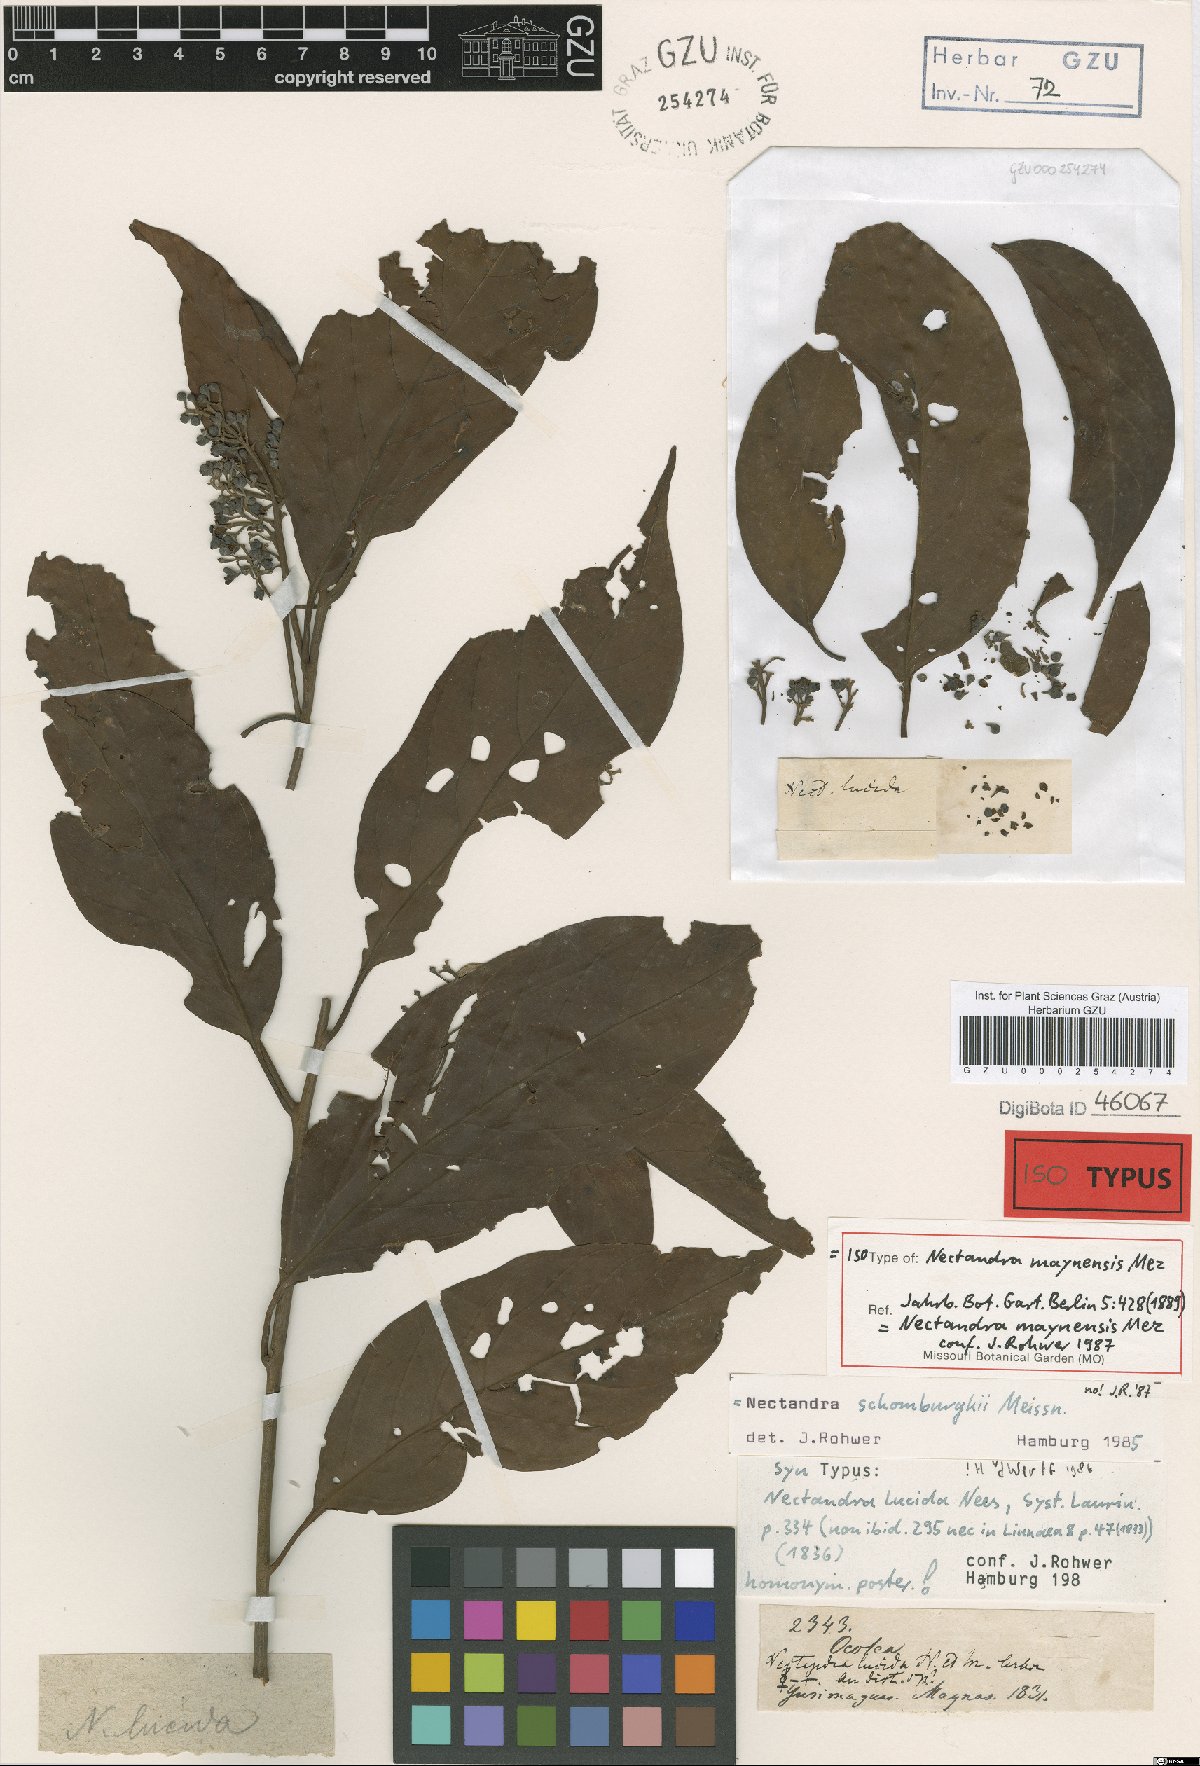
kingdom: Plantae
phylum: Tracheophyta
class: Magnoliopsida
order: Laurales
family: Lauraceae
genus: Nectandra
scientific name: Nectandra maynensis
